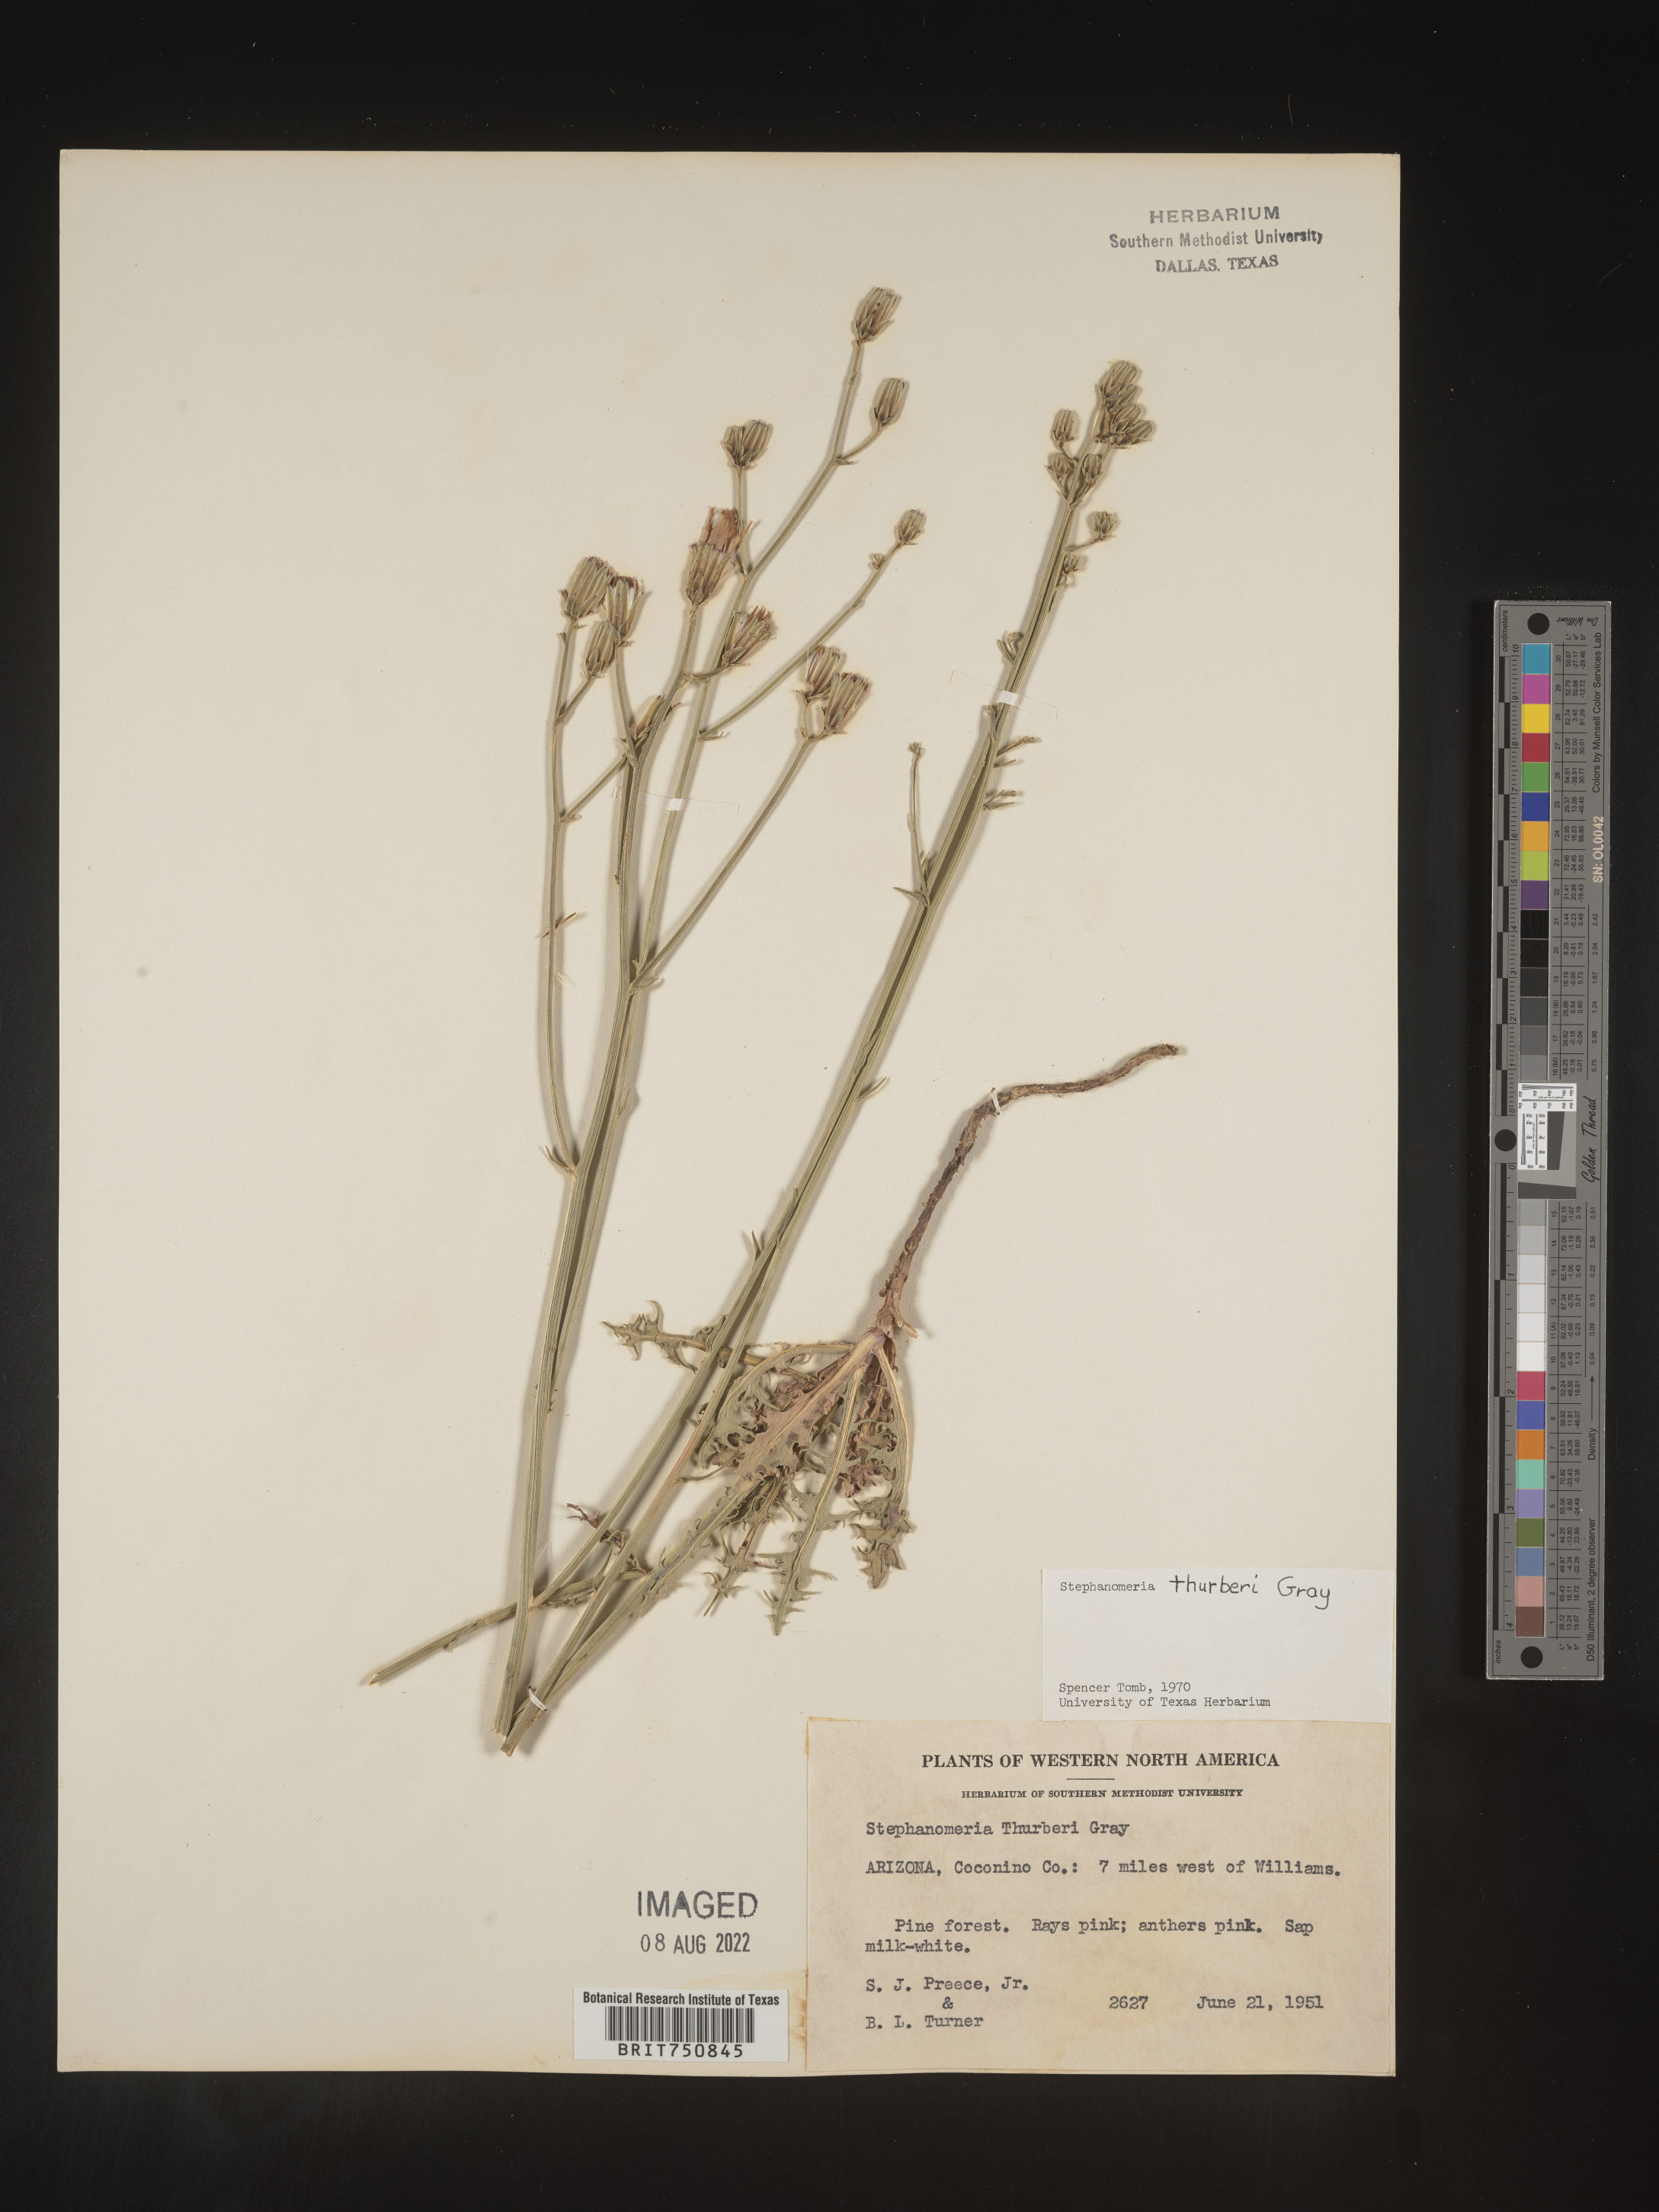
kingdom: Plantae
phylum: Tracheophyta
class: Magnoliopsida
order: Asterales
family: Asteraceae
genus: Stephanomeria
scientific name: Stephanomeria thurberi
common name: Thurber's wire-lettuce
